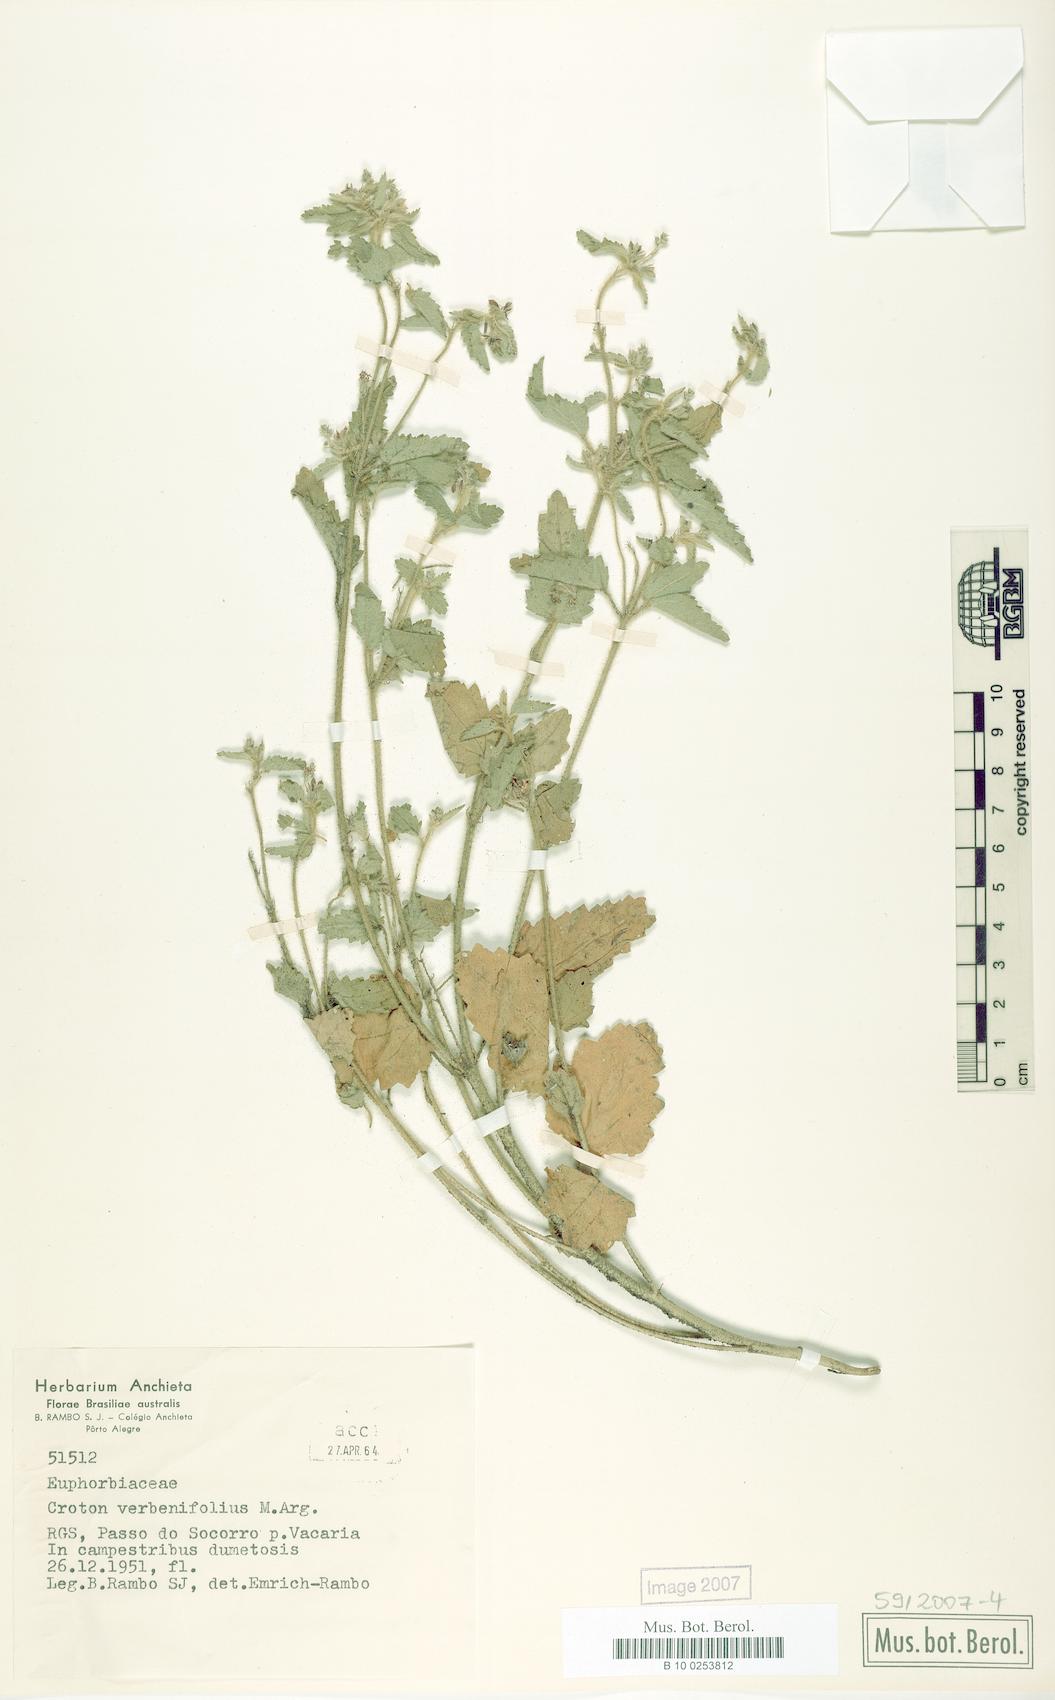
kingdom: Plantae
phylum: Tracheophyta
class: Magnoliopsida
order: Malpighiales
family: Euphorbiaceae
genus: Croton
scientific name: Croton verbenifolius
